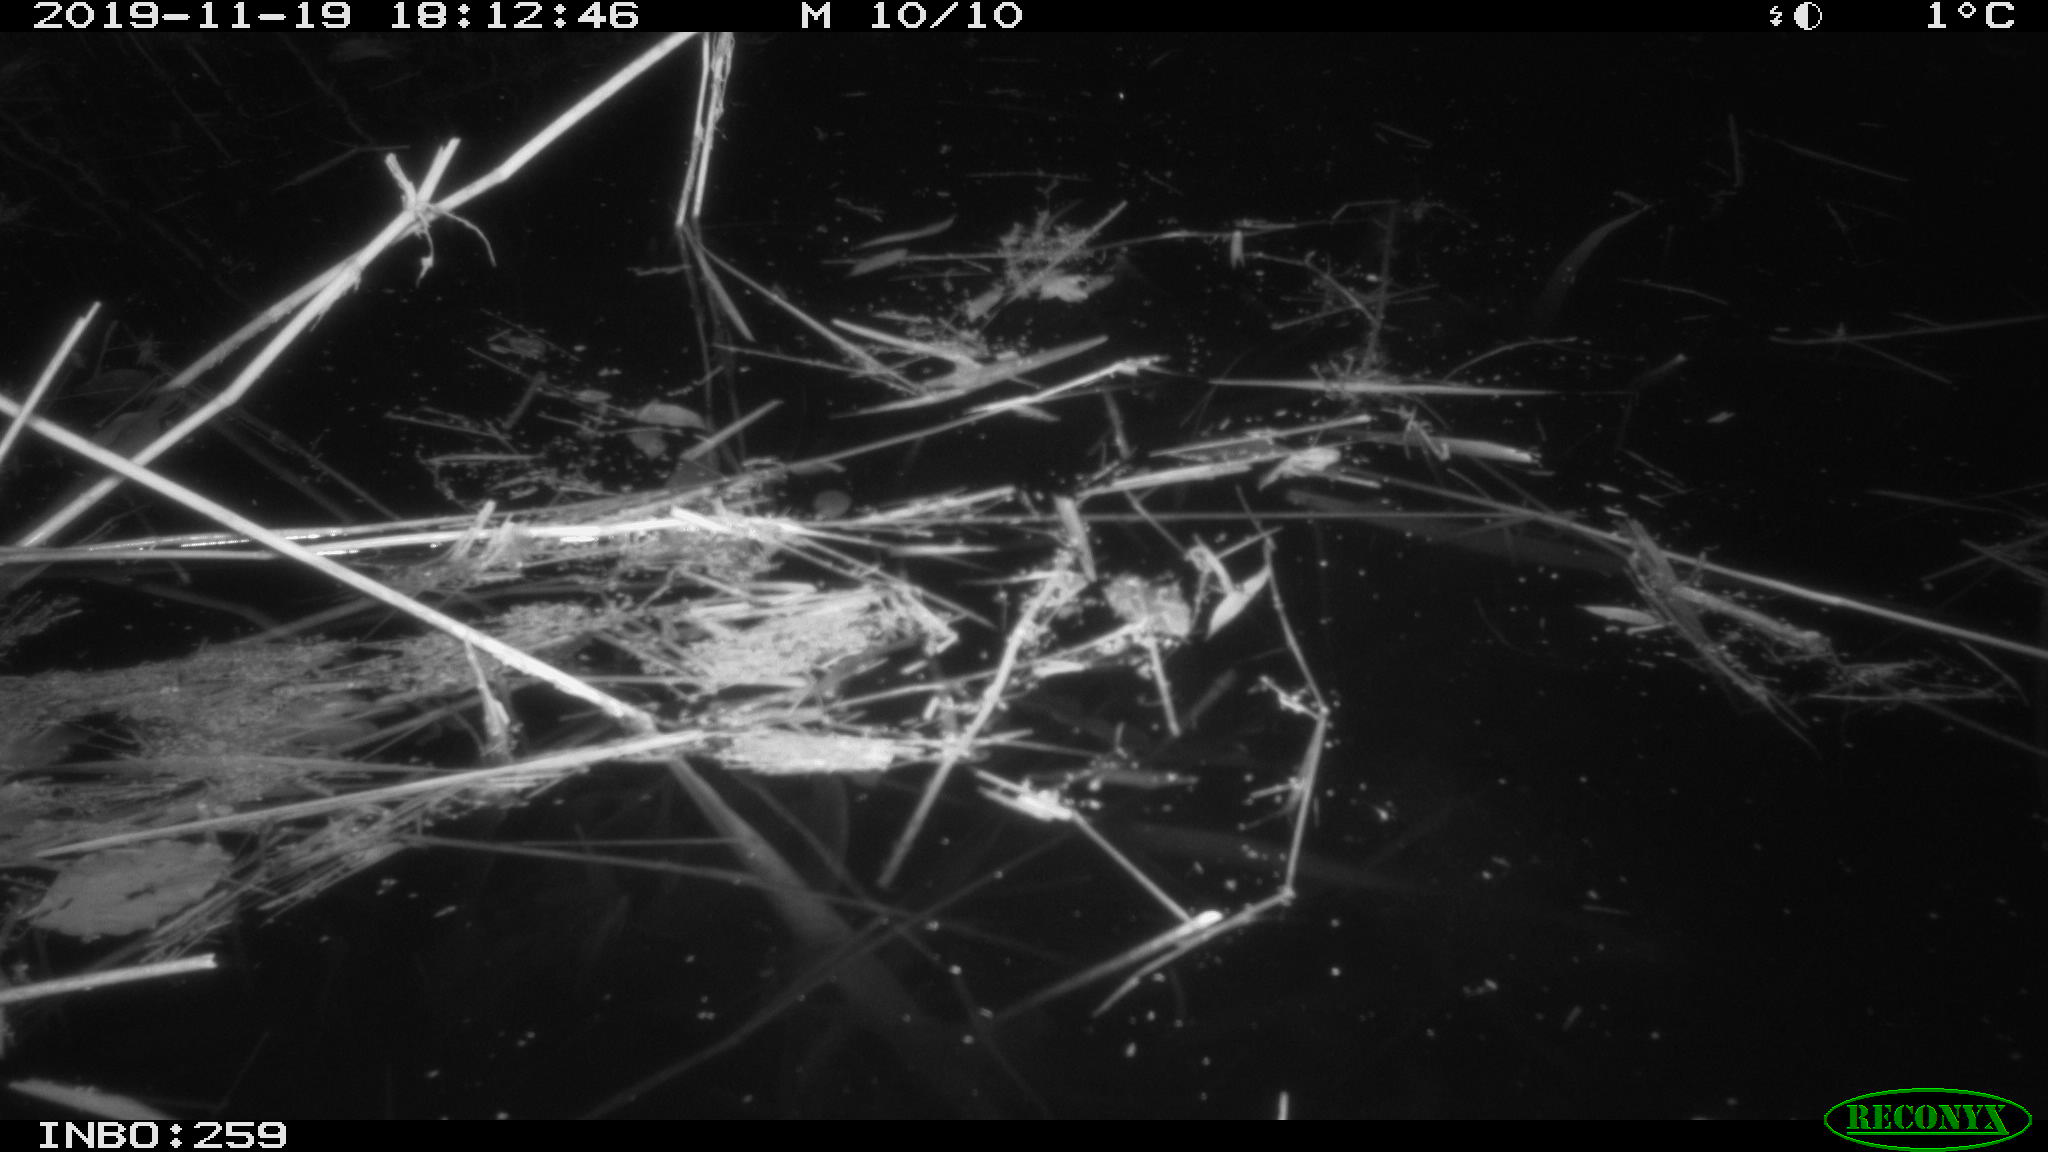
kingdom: Animalia
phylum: Chordata
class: Mammalia
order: Rodentia
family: Cricetidae
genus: Ondatra
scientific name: Ondatra zibethicus
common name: Muskrat
